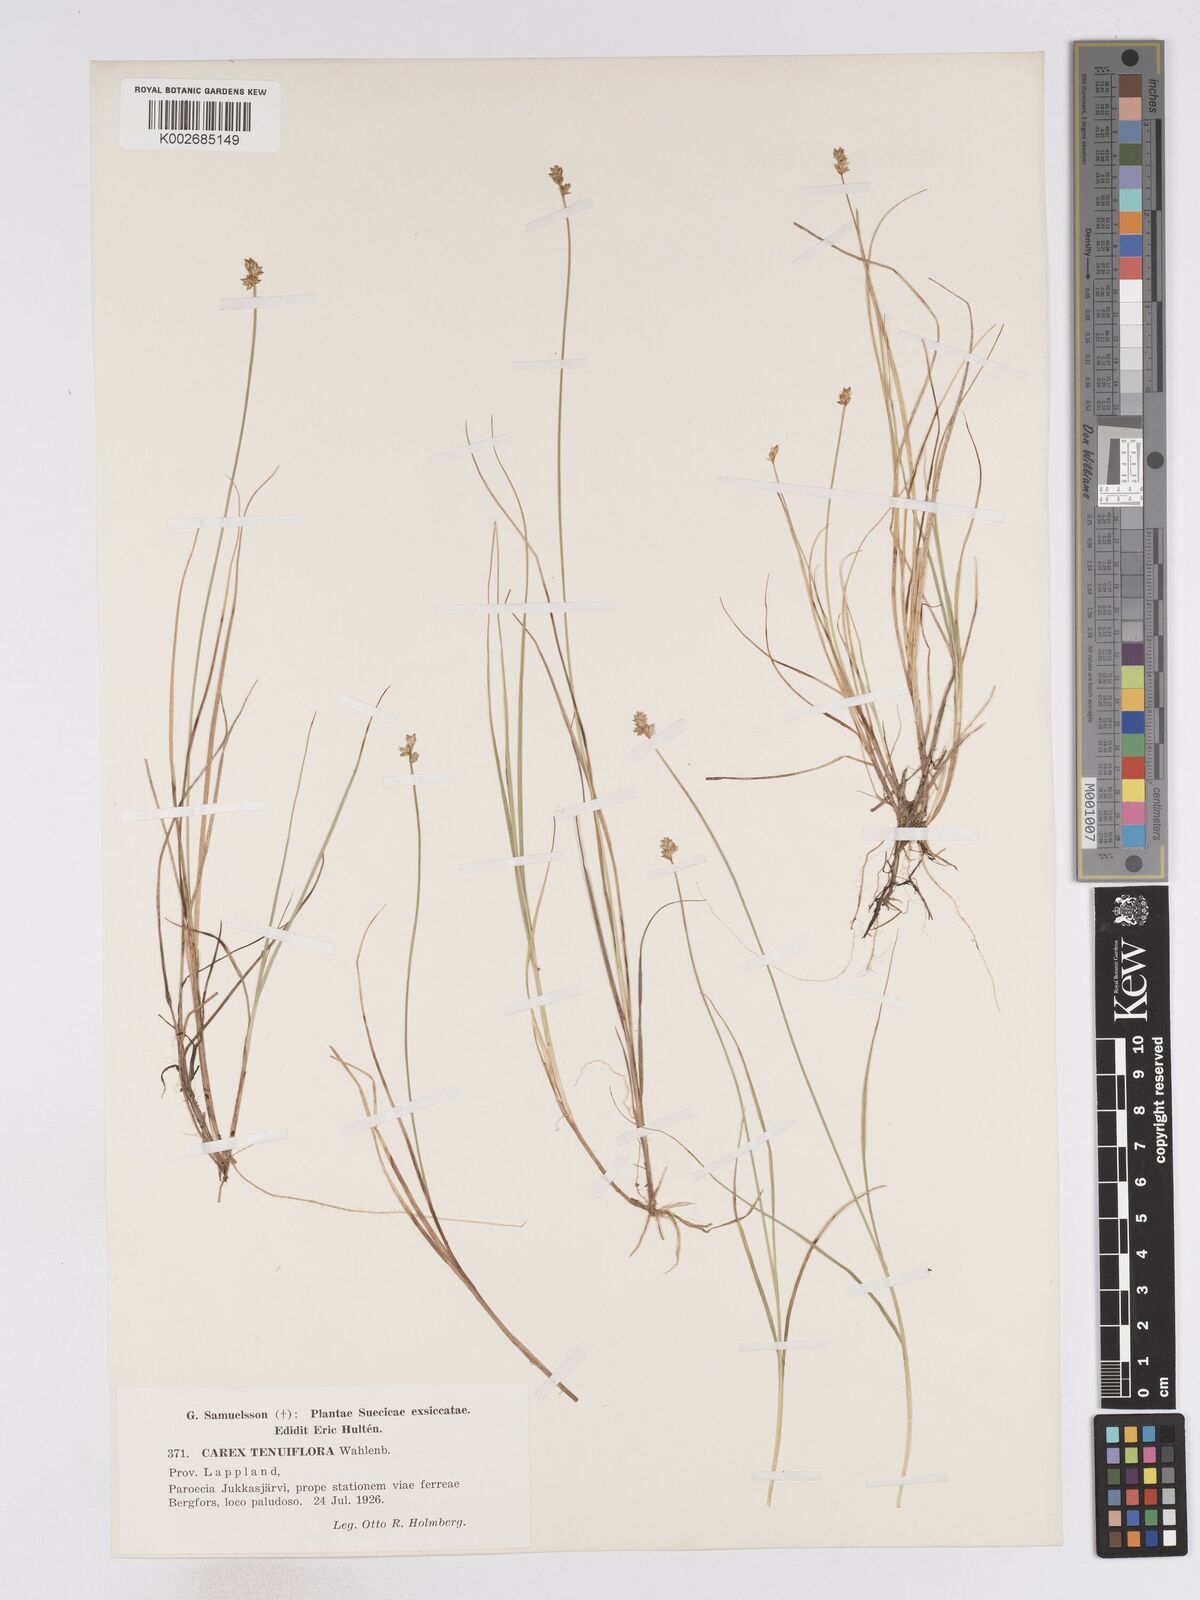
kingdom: Plantae
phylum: Tracheophyta
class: Liliopsida
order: Poales
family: Cyperaceae
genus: Carex
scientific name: Carex tenuiflora
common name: Sparse-flowered sedge
